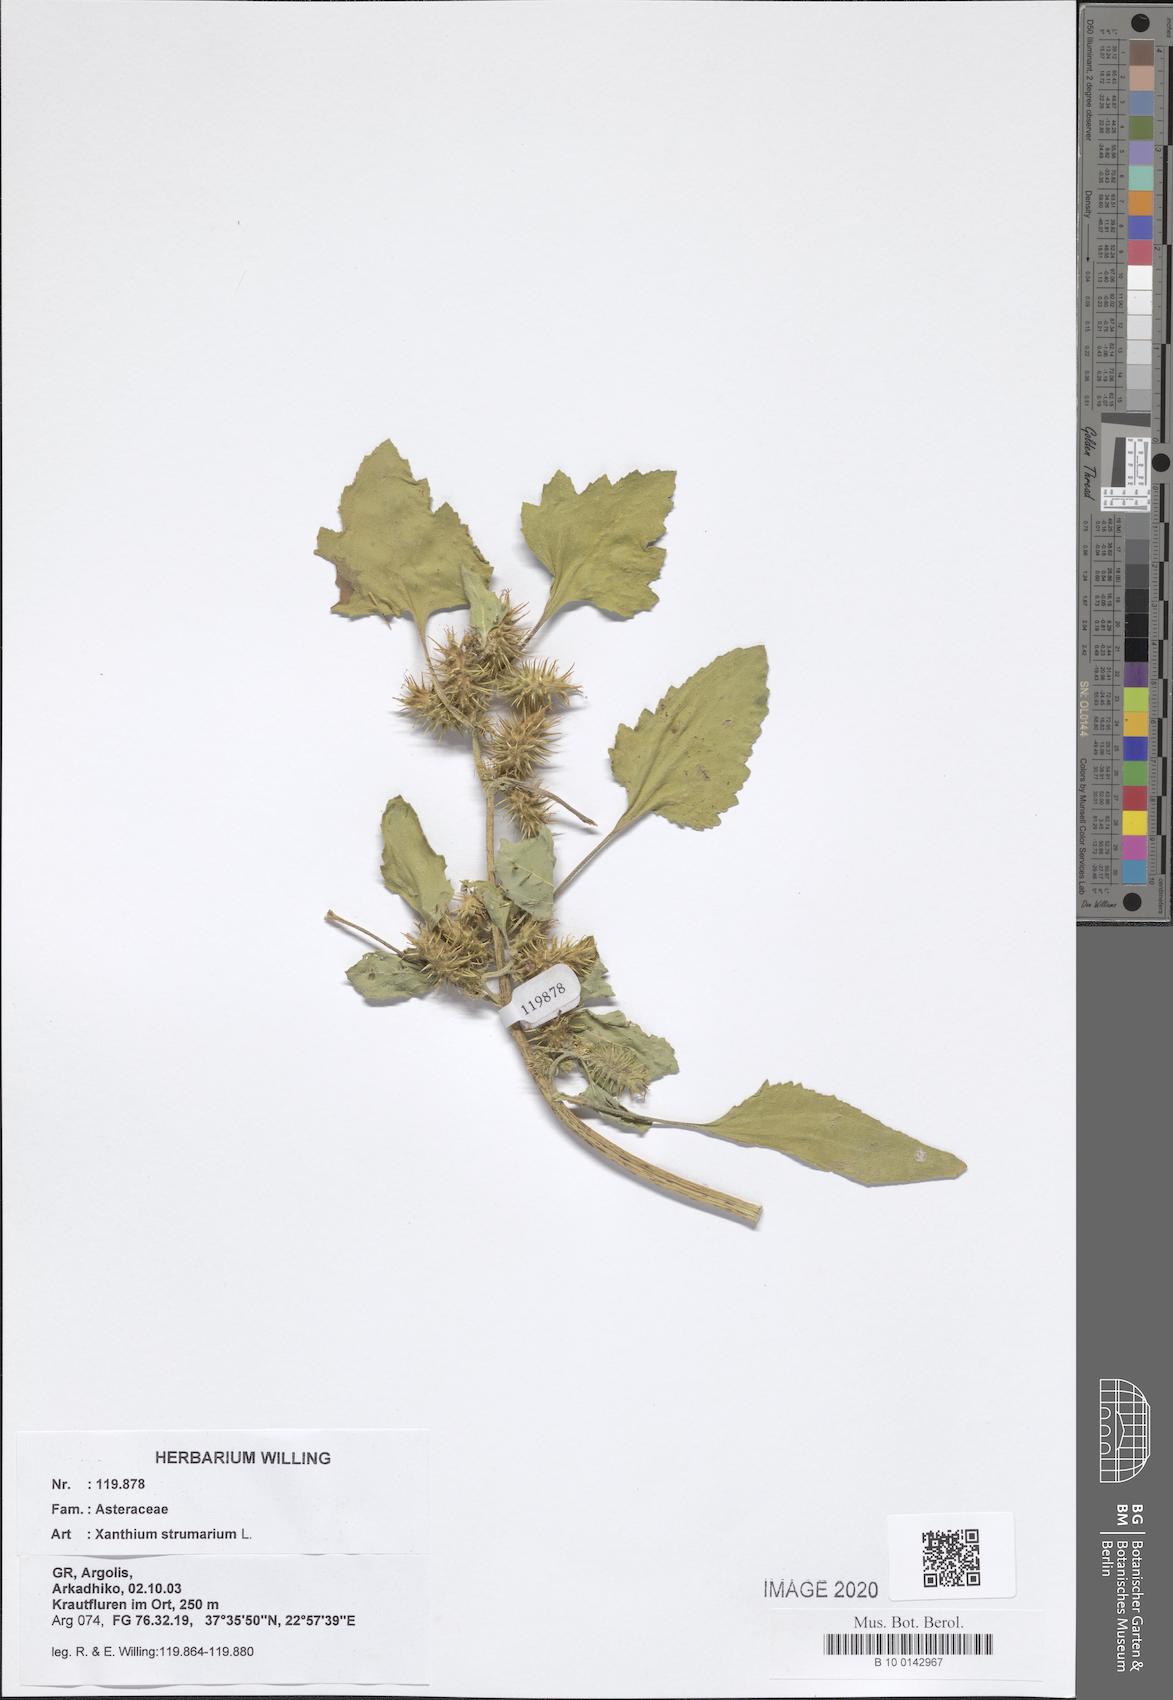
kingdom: Plantae
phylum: Tracheophyta
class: Magnoliopsida
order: Asterales
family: Asteraceae
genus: Xanthium
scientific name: Xanthium strumarium
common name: Rough cocklebur
